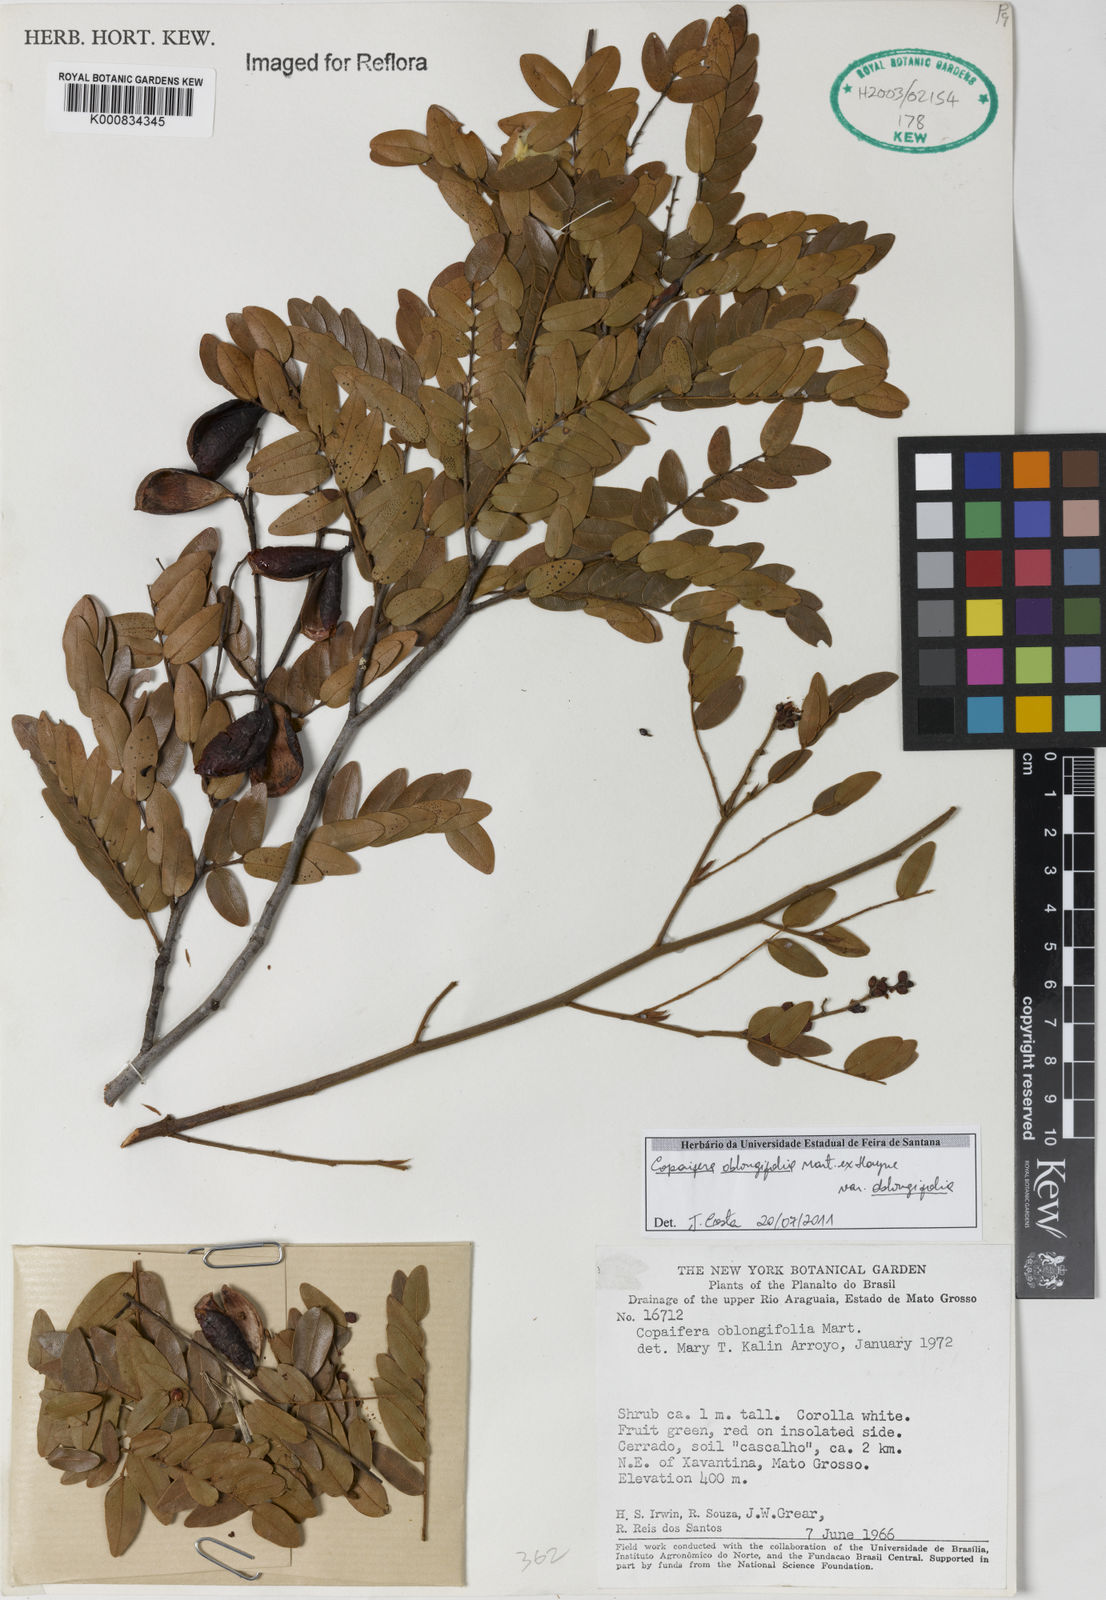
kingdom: Plantae
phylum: Tracheophyta
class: Magnoliopsida
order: Fabales
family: Fabaceae
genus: Copaifera
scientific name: Copaifera
